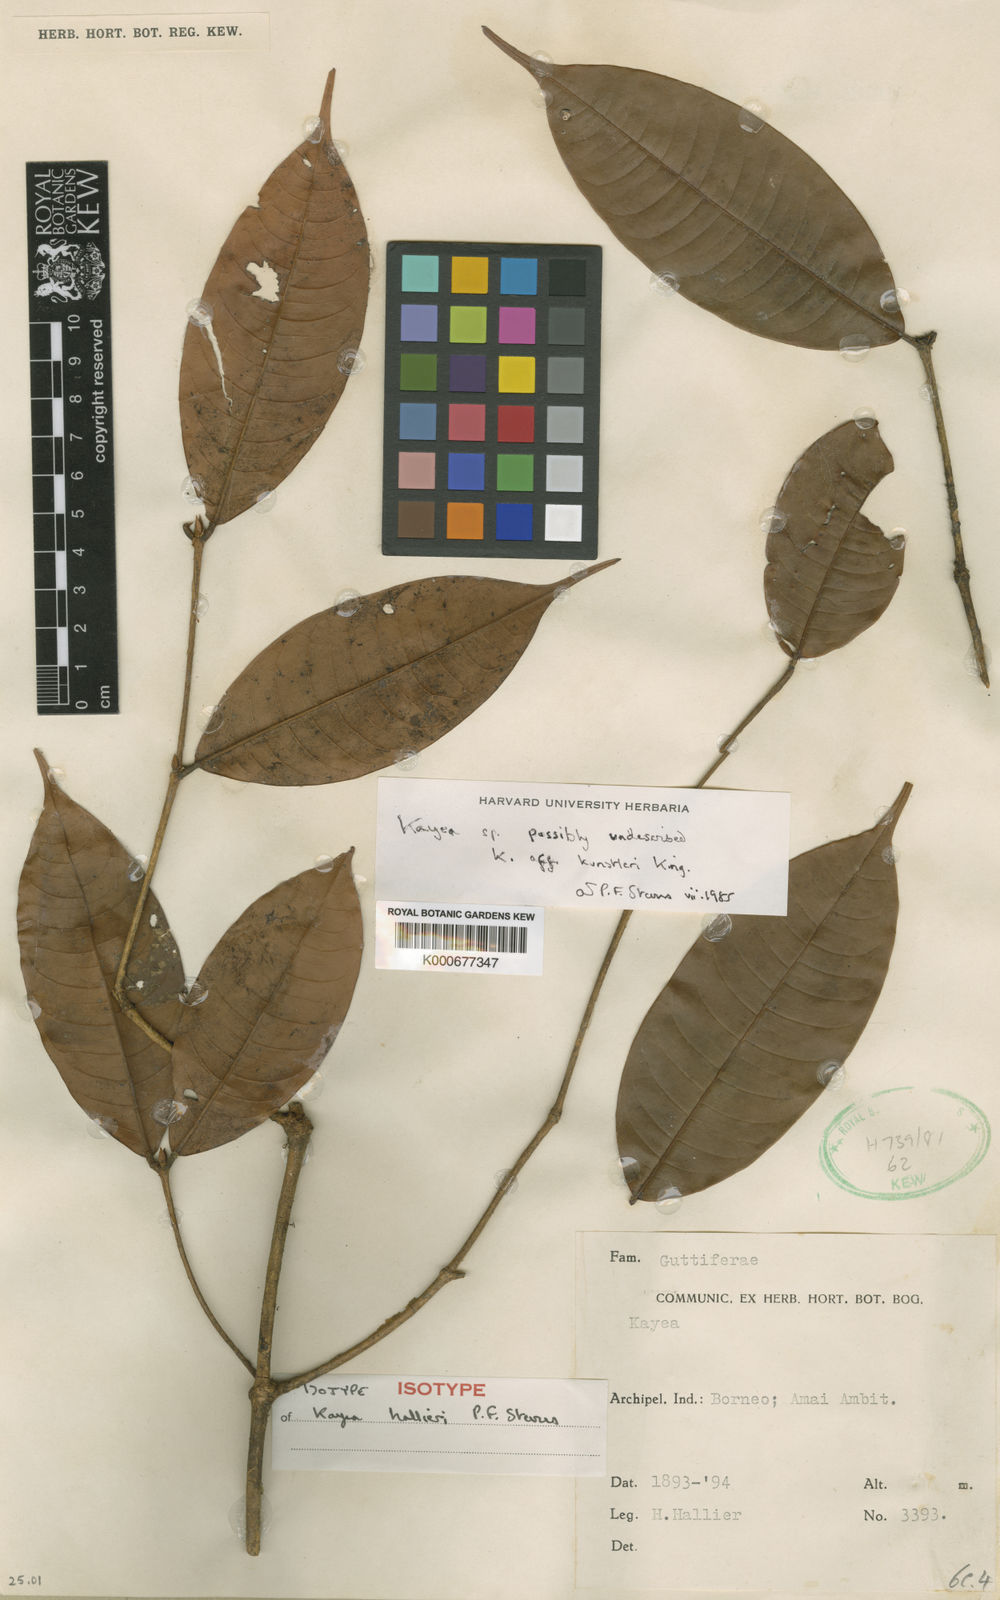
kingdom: Plantae
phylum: Tracheophyta
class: Magnoliopsida
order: Malpighiales
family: Calophyllaceae
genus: Kayea
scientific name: Kayea
